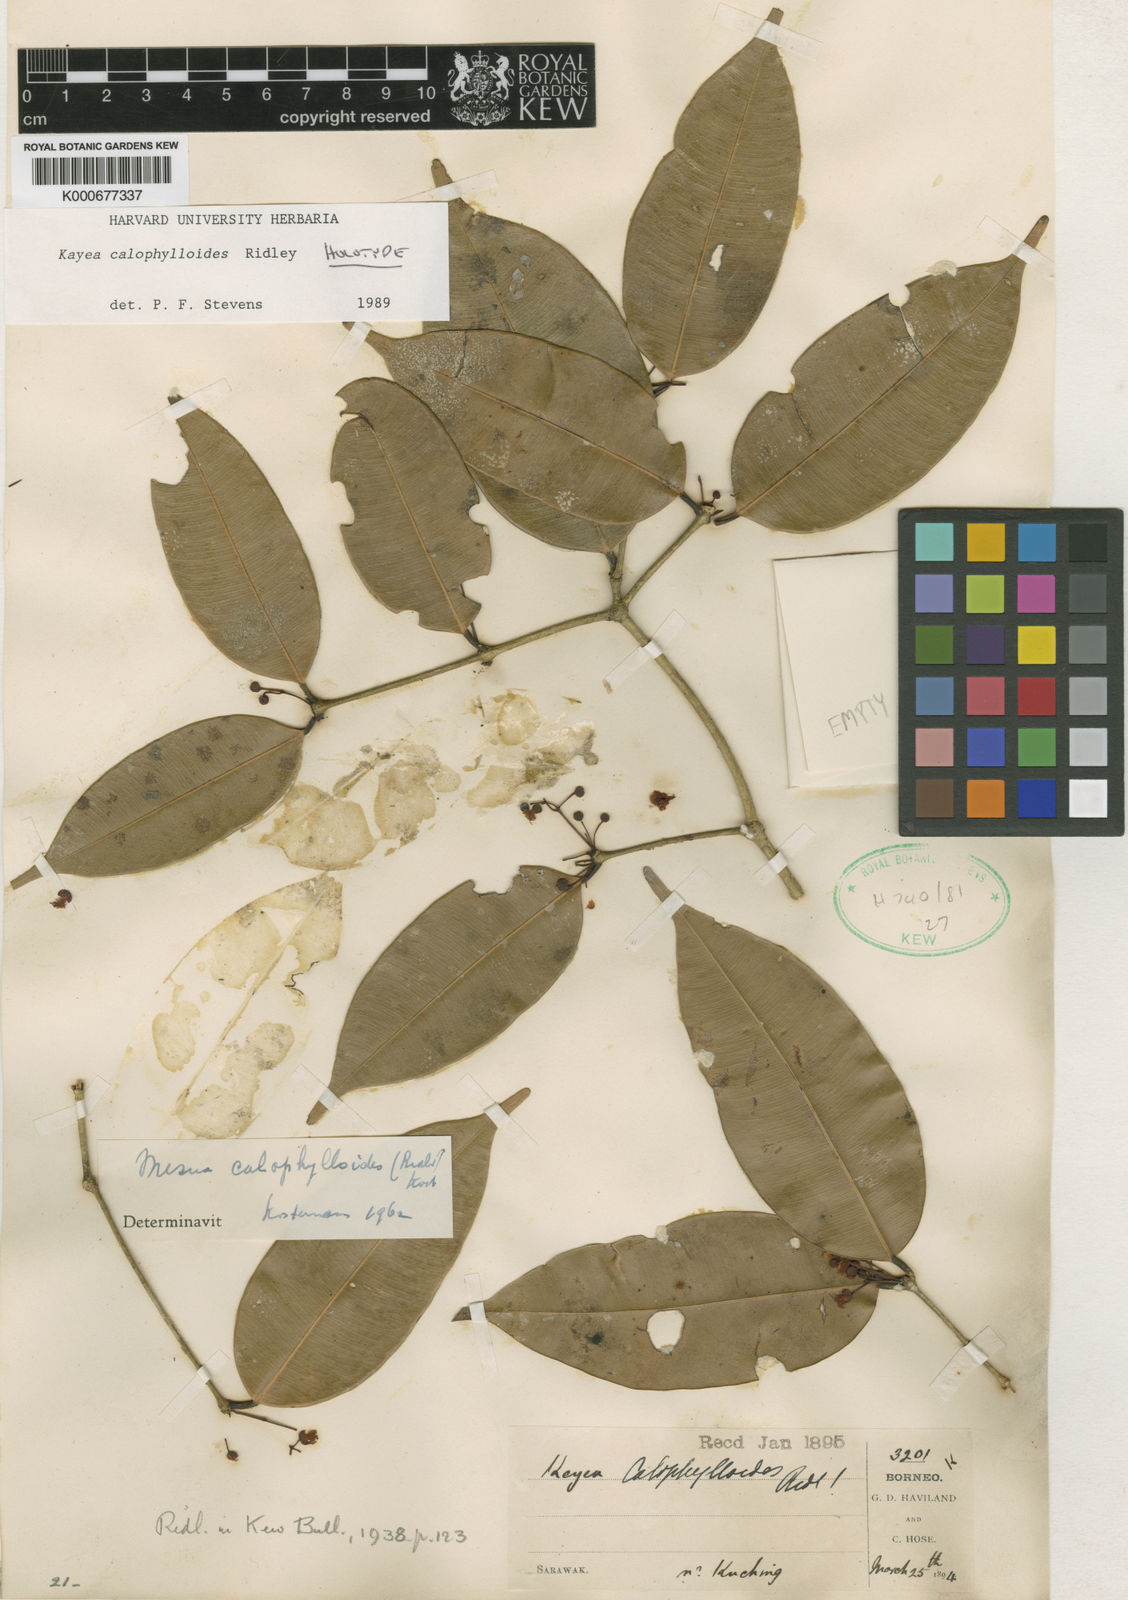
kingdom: Plantae
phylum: Tracheophyta
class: Magnoliopsida
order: Malpighiales
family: Calophyllaceae
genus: Kayea
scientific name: Kayea calophylloides
